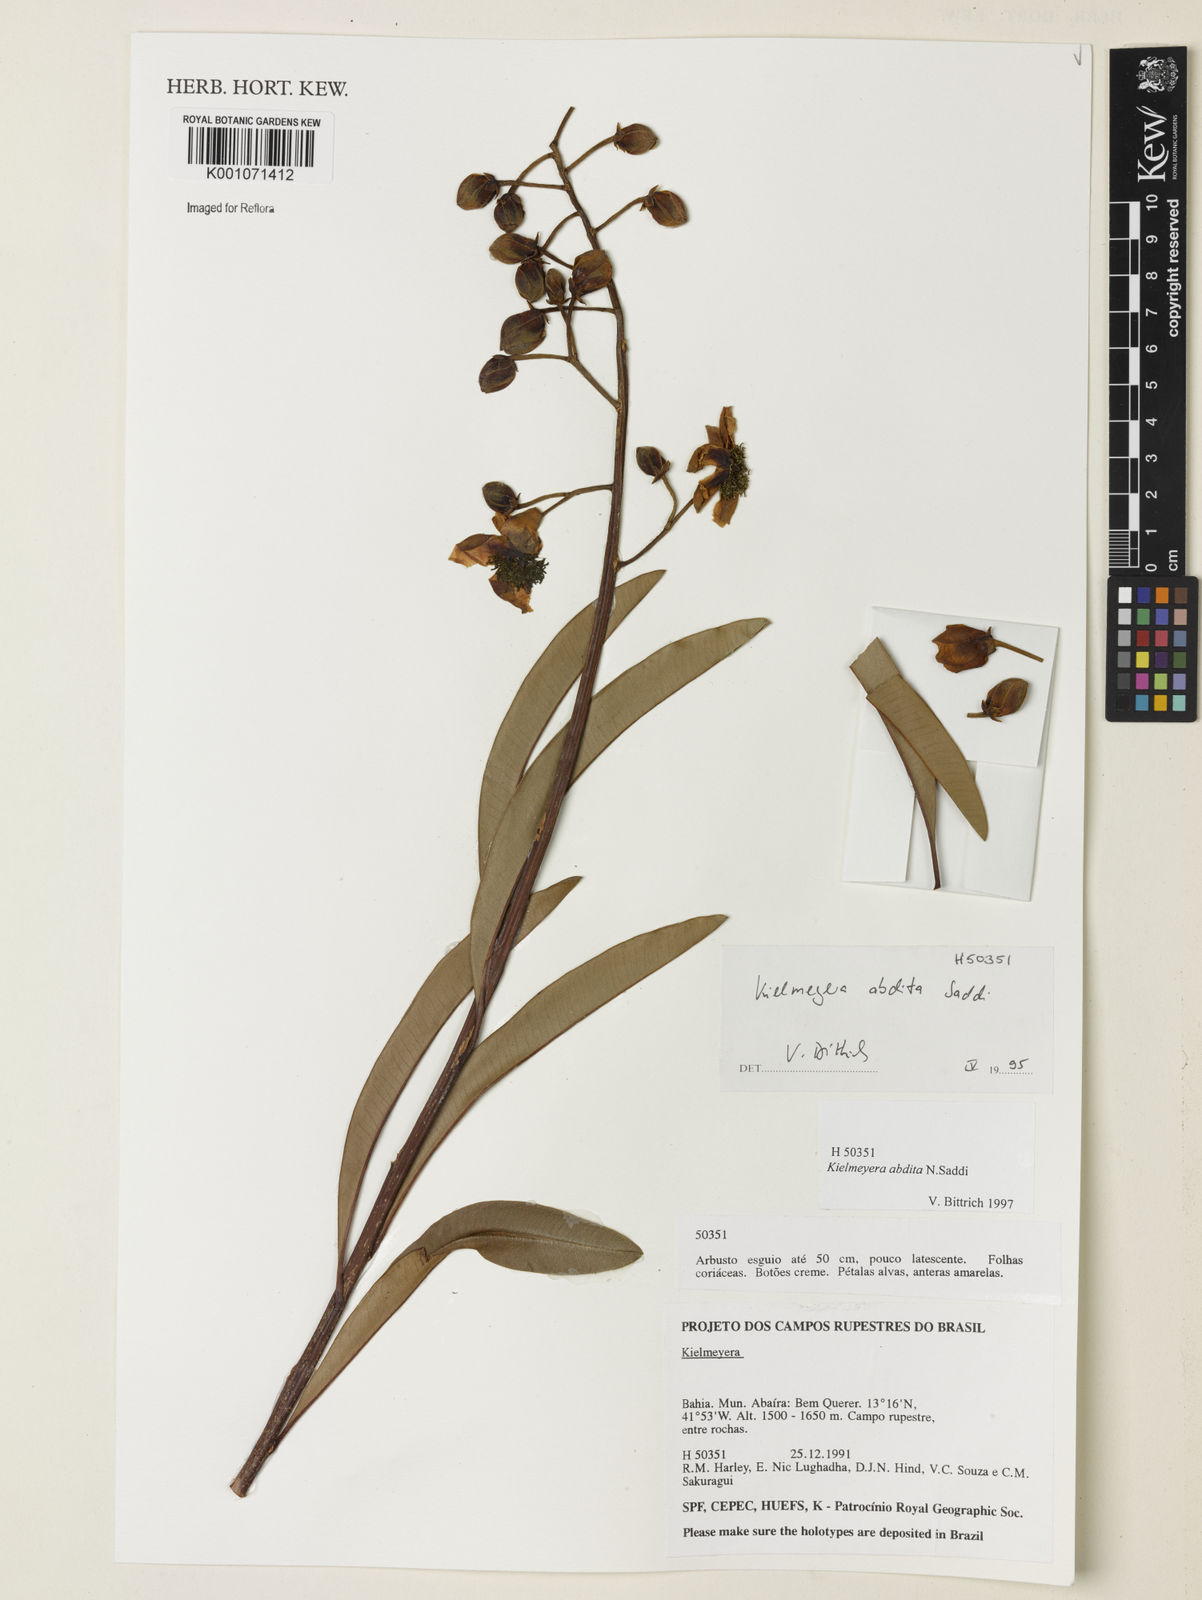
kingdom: Plantae
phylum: Tracheophyta
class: Magnoliopsida
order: Malpighiales
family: Calophyllaceae
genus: Kielmeyera
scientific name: Kielmeyera abdita
